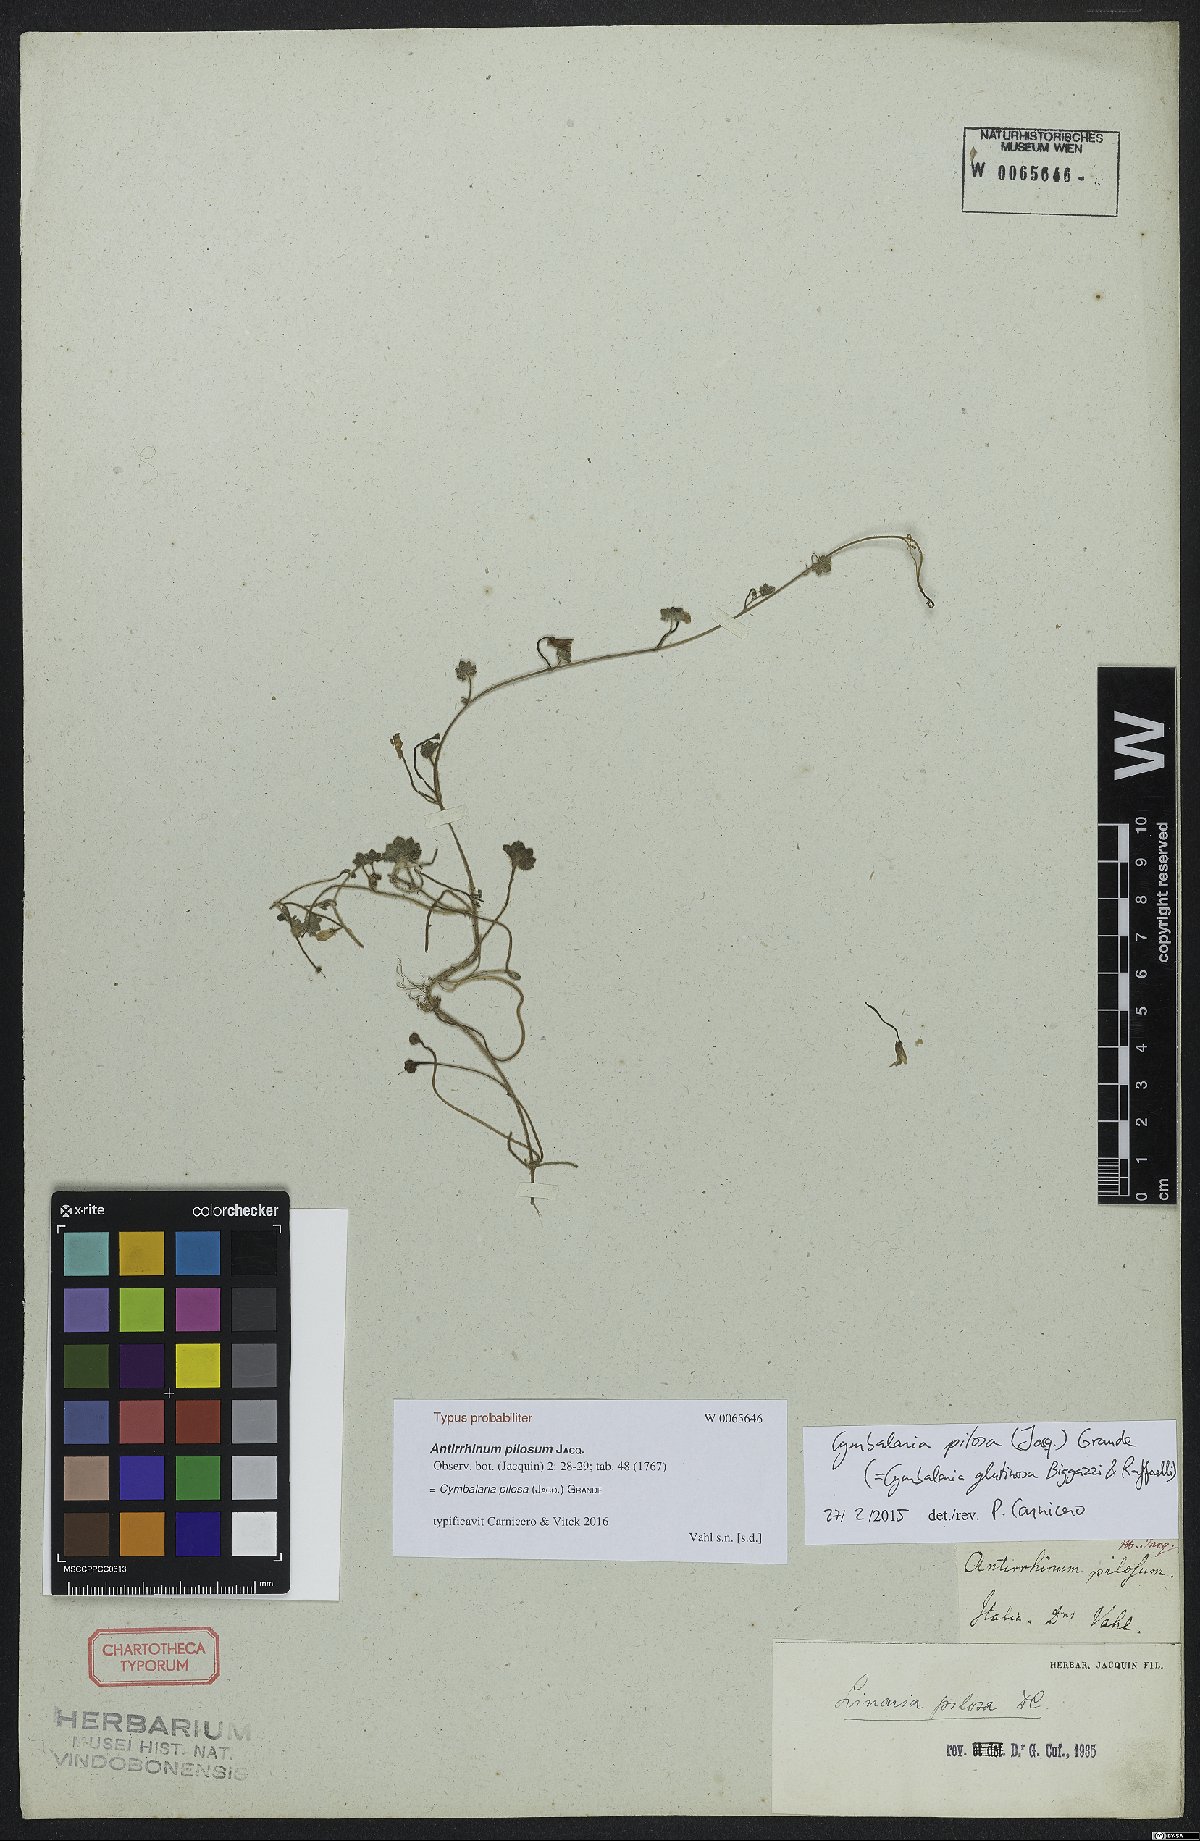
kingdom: Plantae
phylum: Tracheophyta
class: Magnoliopsida
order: Lamiales
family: Plantaginaceae
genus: Sibthorpia
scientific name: Sibthorpia europaea
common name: Cornish moneywort
